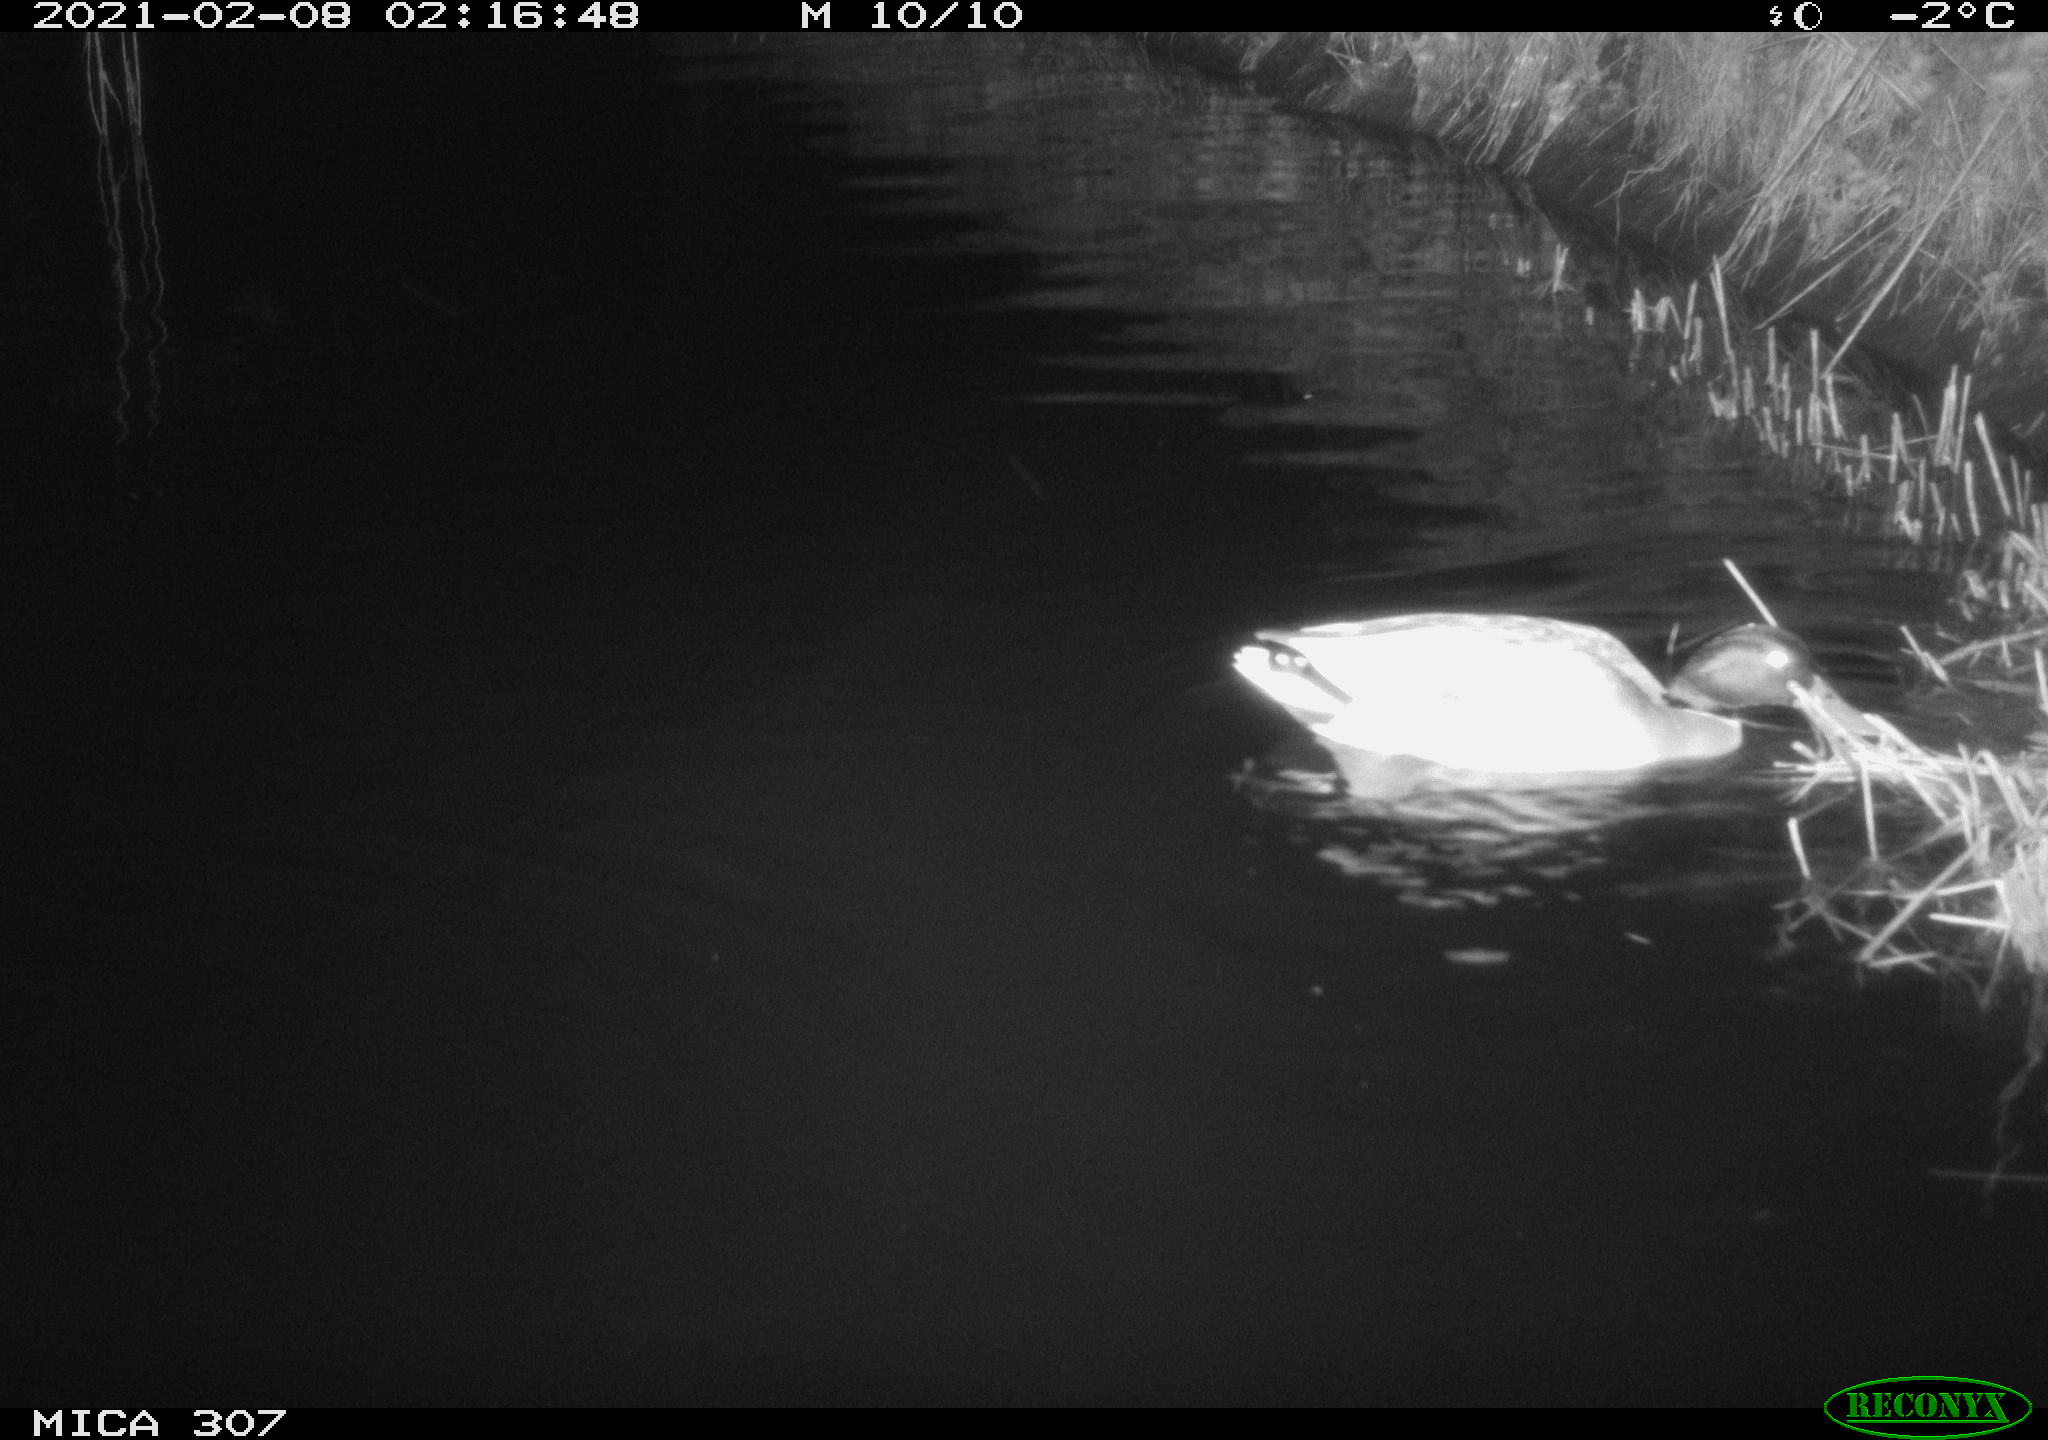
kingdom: Animalia
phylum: Chordata
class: Aves
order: Anseriformes
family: Anatidae
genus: Anas
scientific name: Anas platyrhynchos
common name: Mallard
